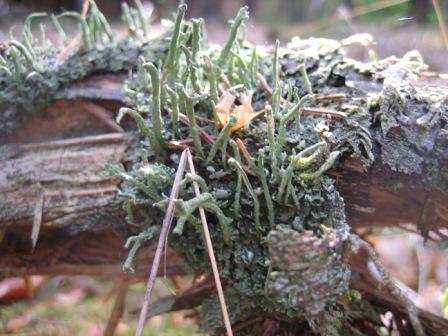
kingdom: Fungi
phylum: Ascomycota
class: Lecanoromycetes
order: Lecanorales
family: Cladoniaceae
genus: Cladonia
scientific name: Cladonia coniocraea
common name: træfods-bægerlav
